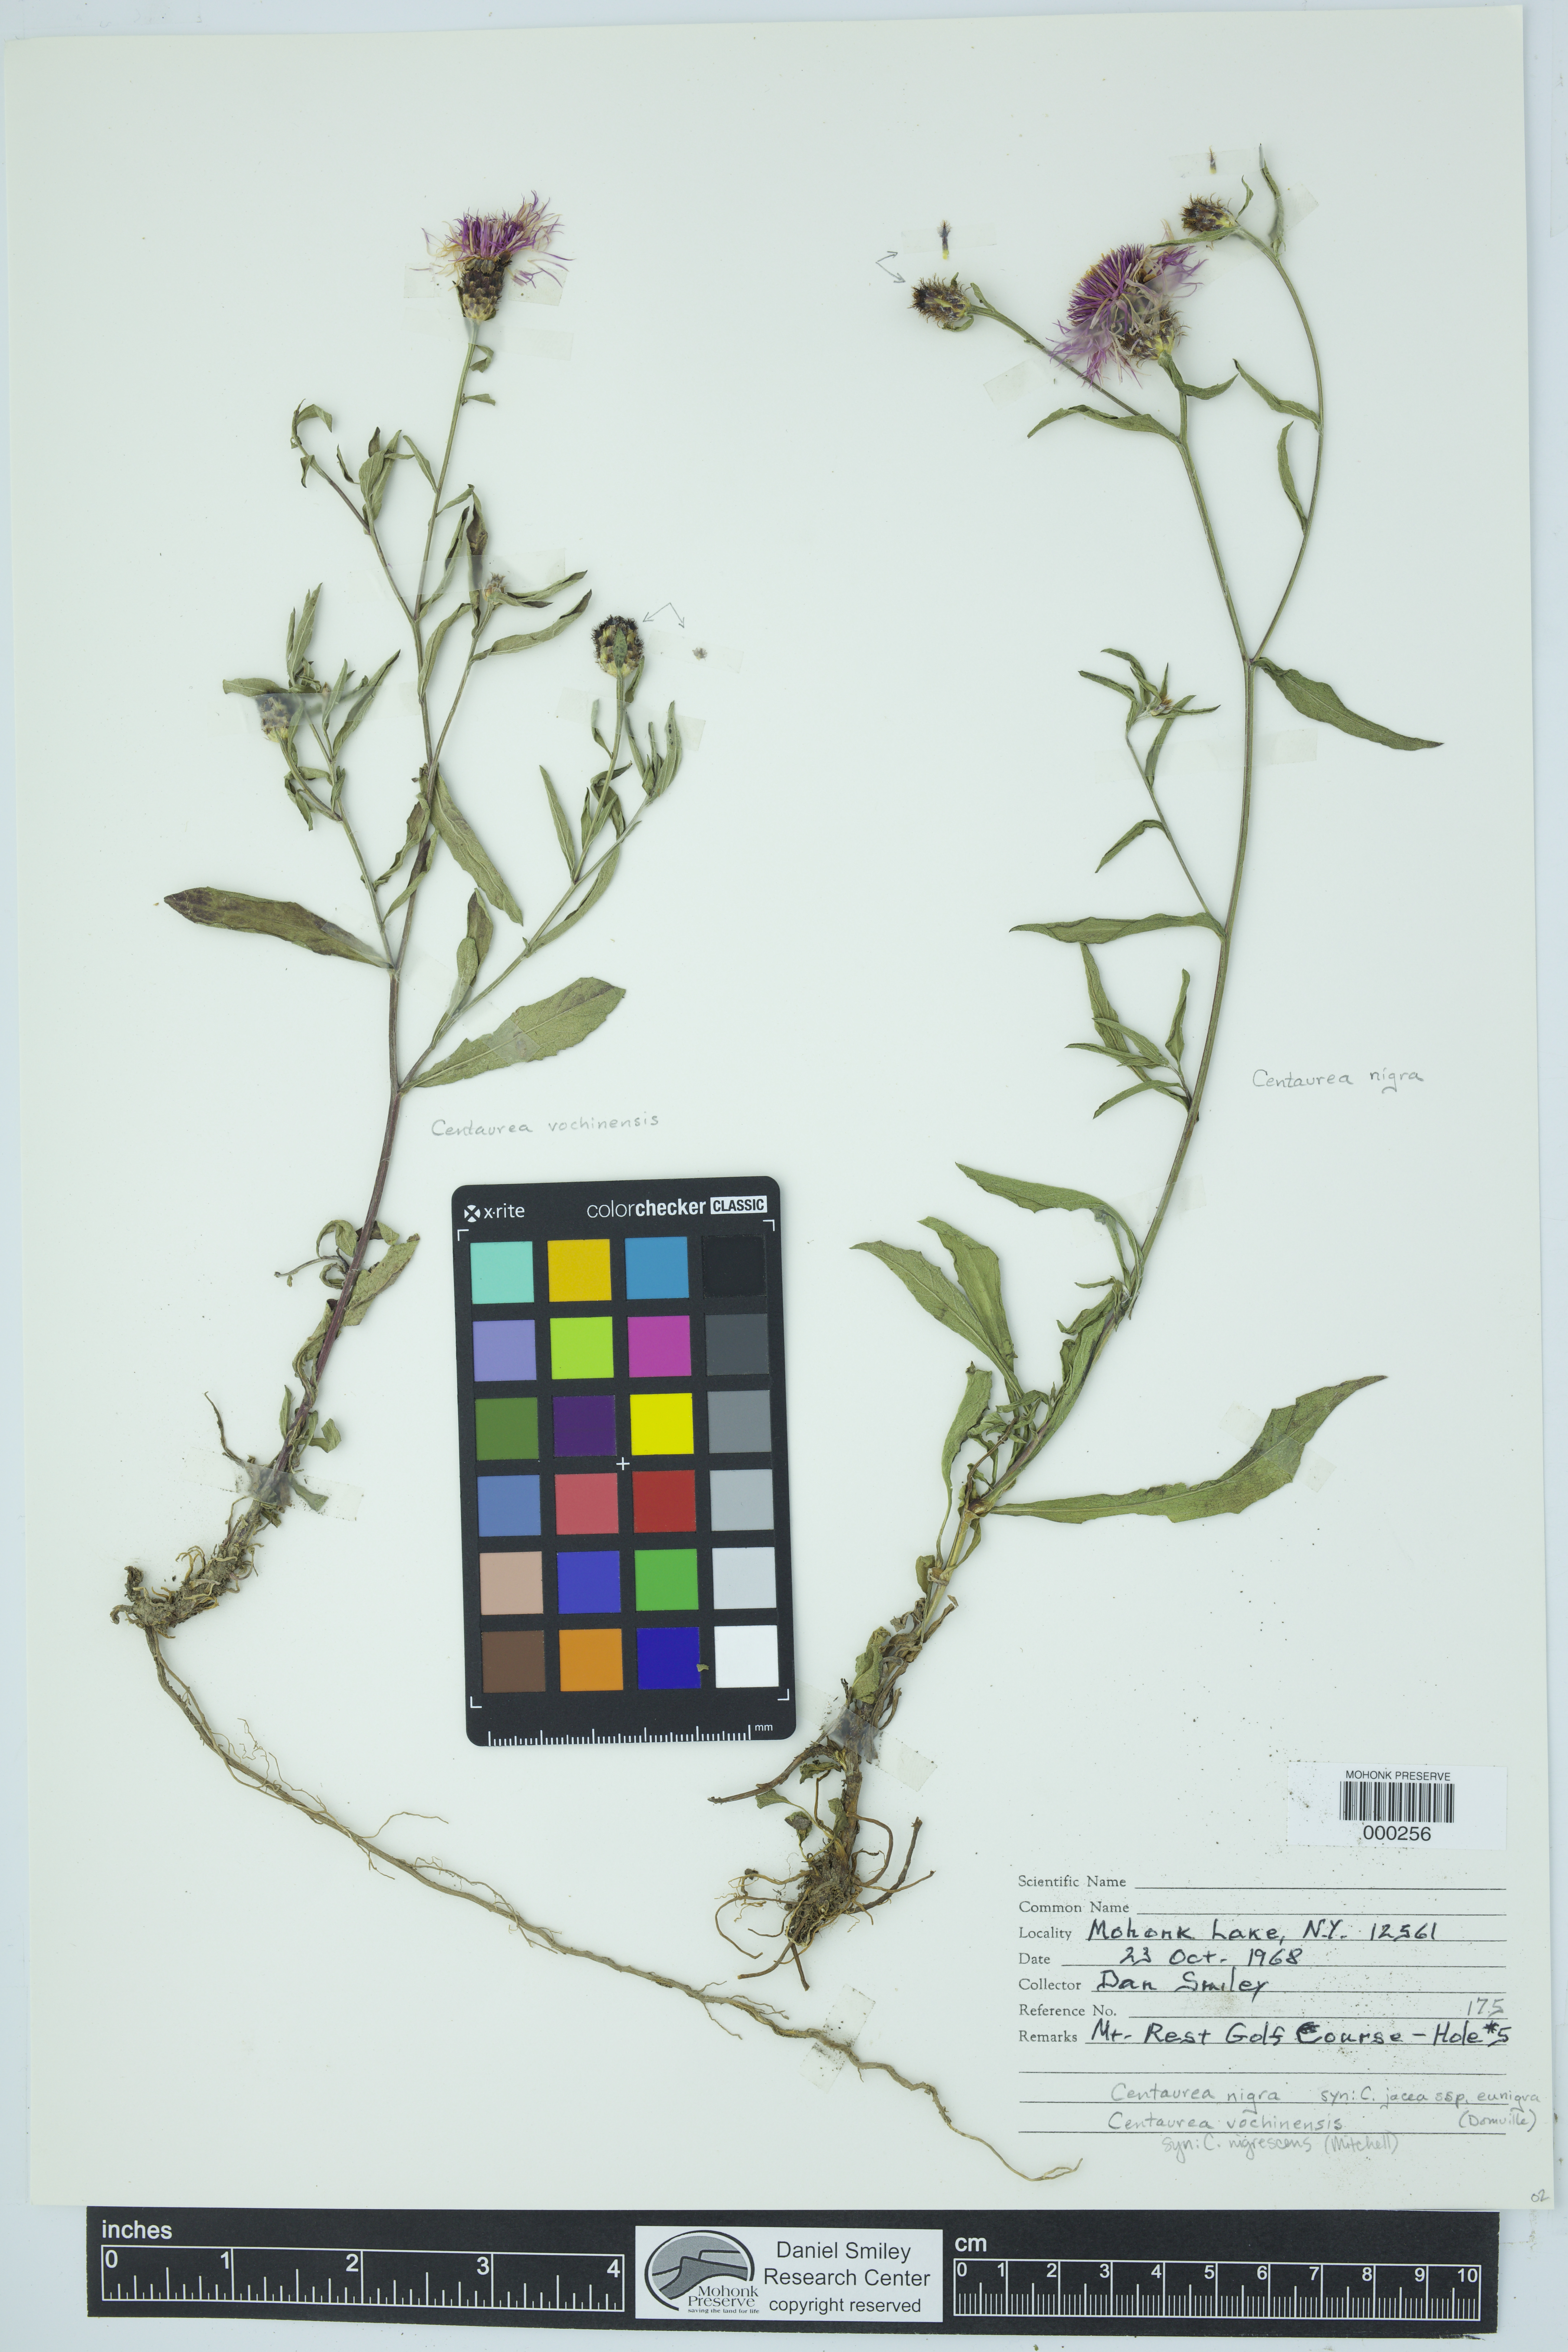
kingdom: Plantae
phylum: Tracheophyta
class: Magnoliopsida
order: Asterales
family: Asteraceae
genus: Centaurea
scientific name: Centaurea nigra
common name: Lesser knapweed
